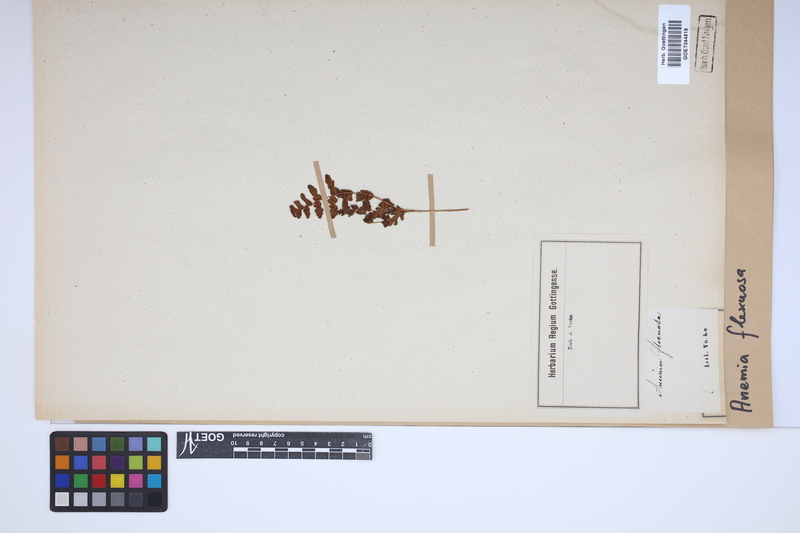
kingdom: Plantae
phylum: Tracheophyta
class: Polypodiopsida
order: Schizaeales
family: Anemiaceae
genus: Anemia
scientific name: Anemia flexuosa
